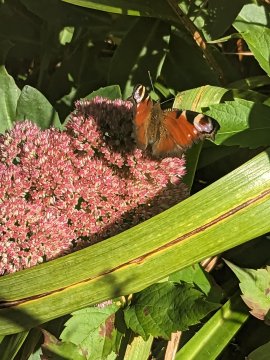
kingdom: Animalia
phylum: Arthropoda
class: Insecta
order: Lepidoptera
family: Nymphalidae
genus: Aglais
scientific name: Aglais io
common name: European Peacock
